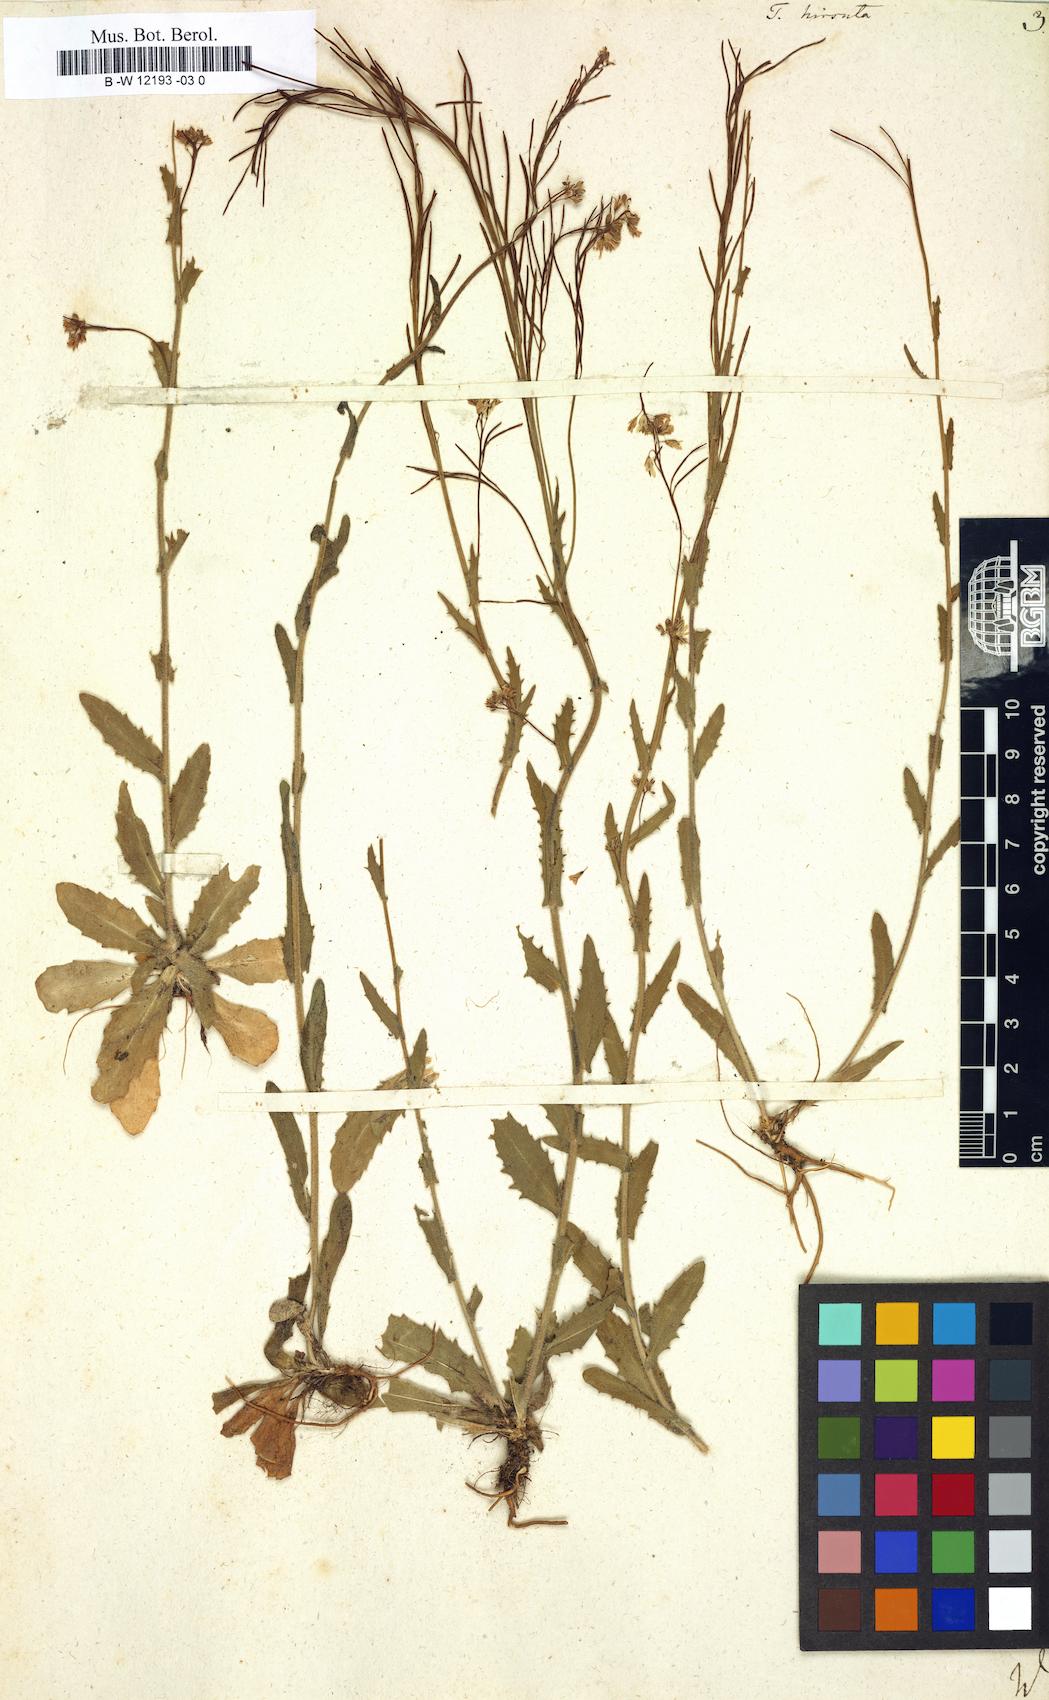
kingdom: Plantae
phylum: Tracheophyta
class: Magnoliopsida
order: Brassicales
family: Brassicaceae
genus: Turritis
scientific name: Turritis hirsuta
